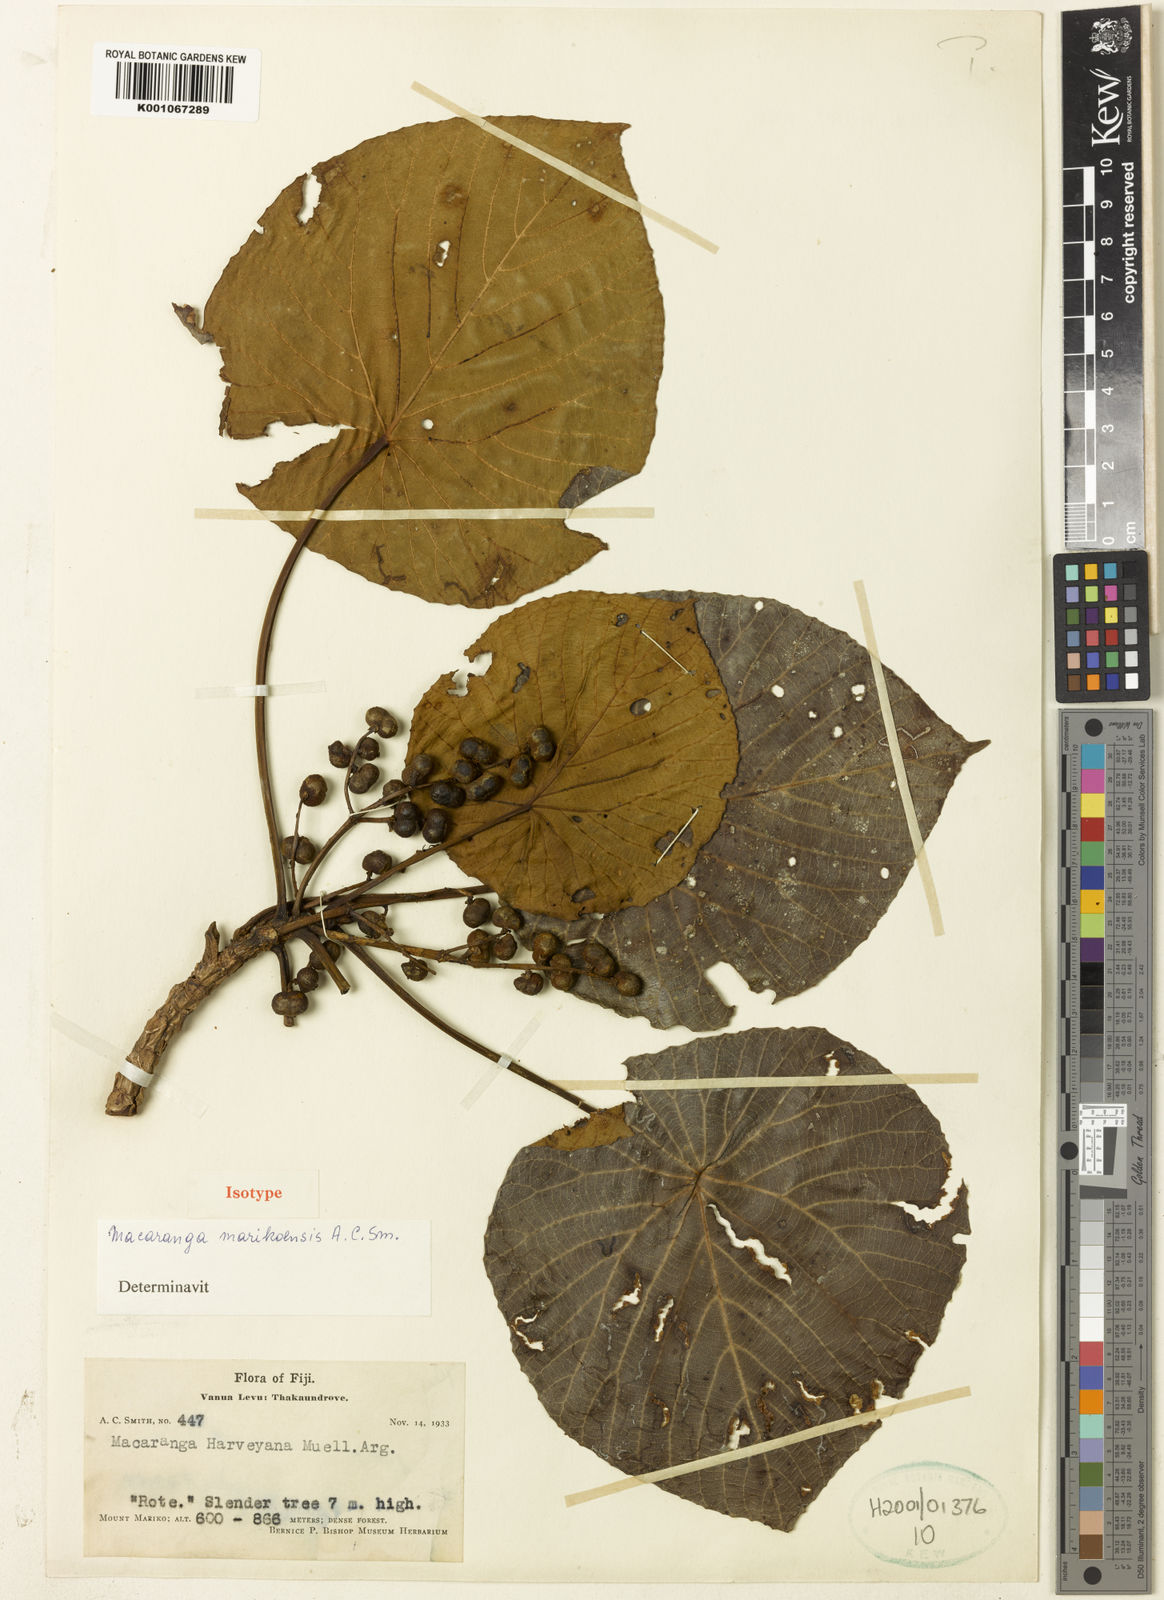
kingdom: Plantae
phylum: Tracheophyta
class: Magnoliopsida
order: Malpighiales
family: Euphorbiaceae
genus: Macaranga
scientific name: Macaranga marikoensis
